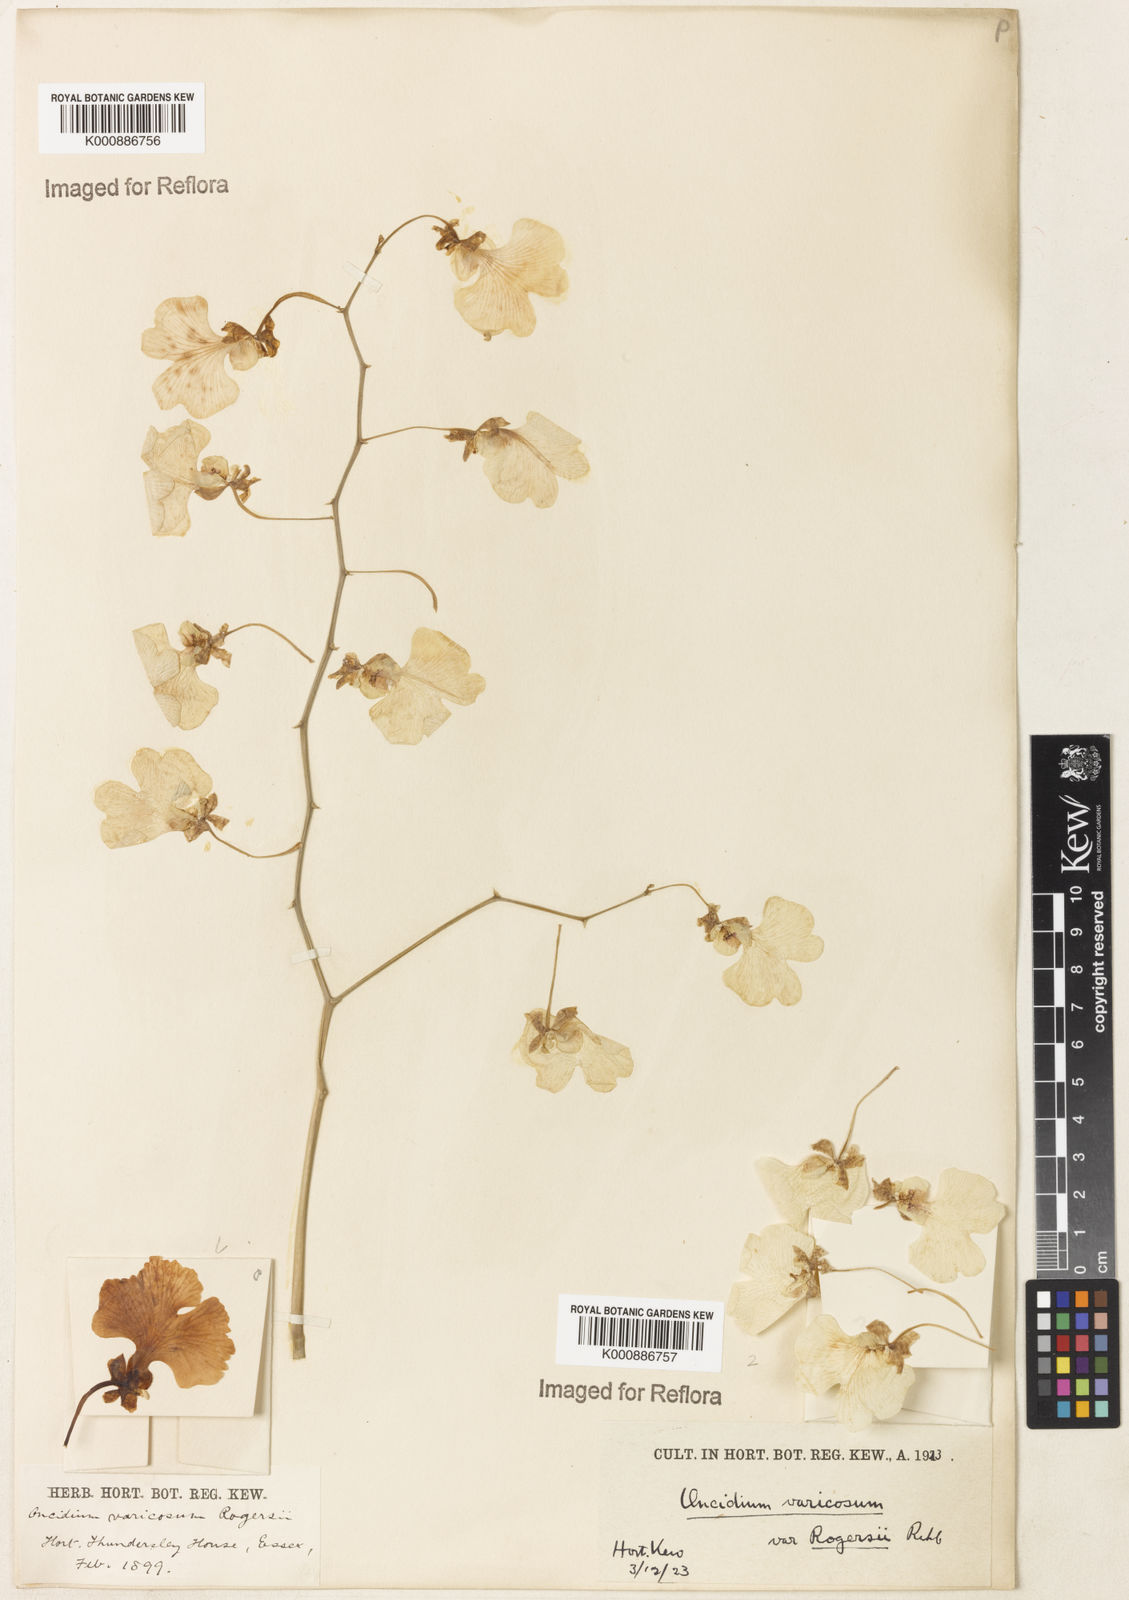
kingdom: Plantae
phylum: Tracheophyta
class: Liliopsida
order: Asparagales
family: Orchidaceae
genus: Gomesa
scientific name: Gomesa varicosa
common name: Dancing ladies
